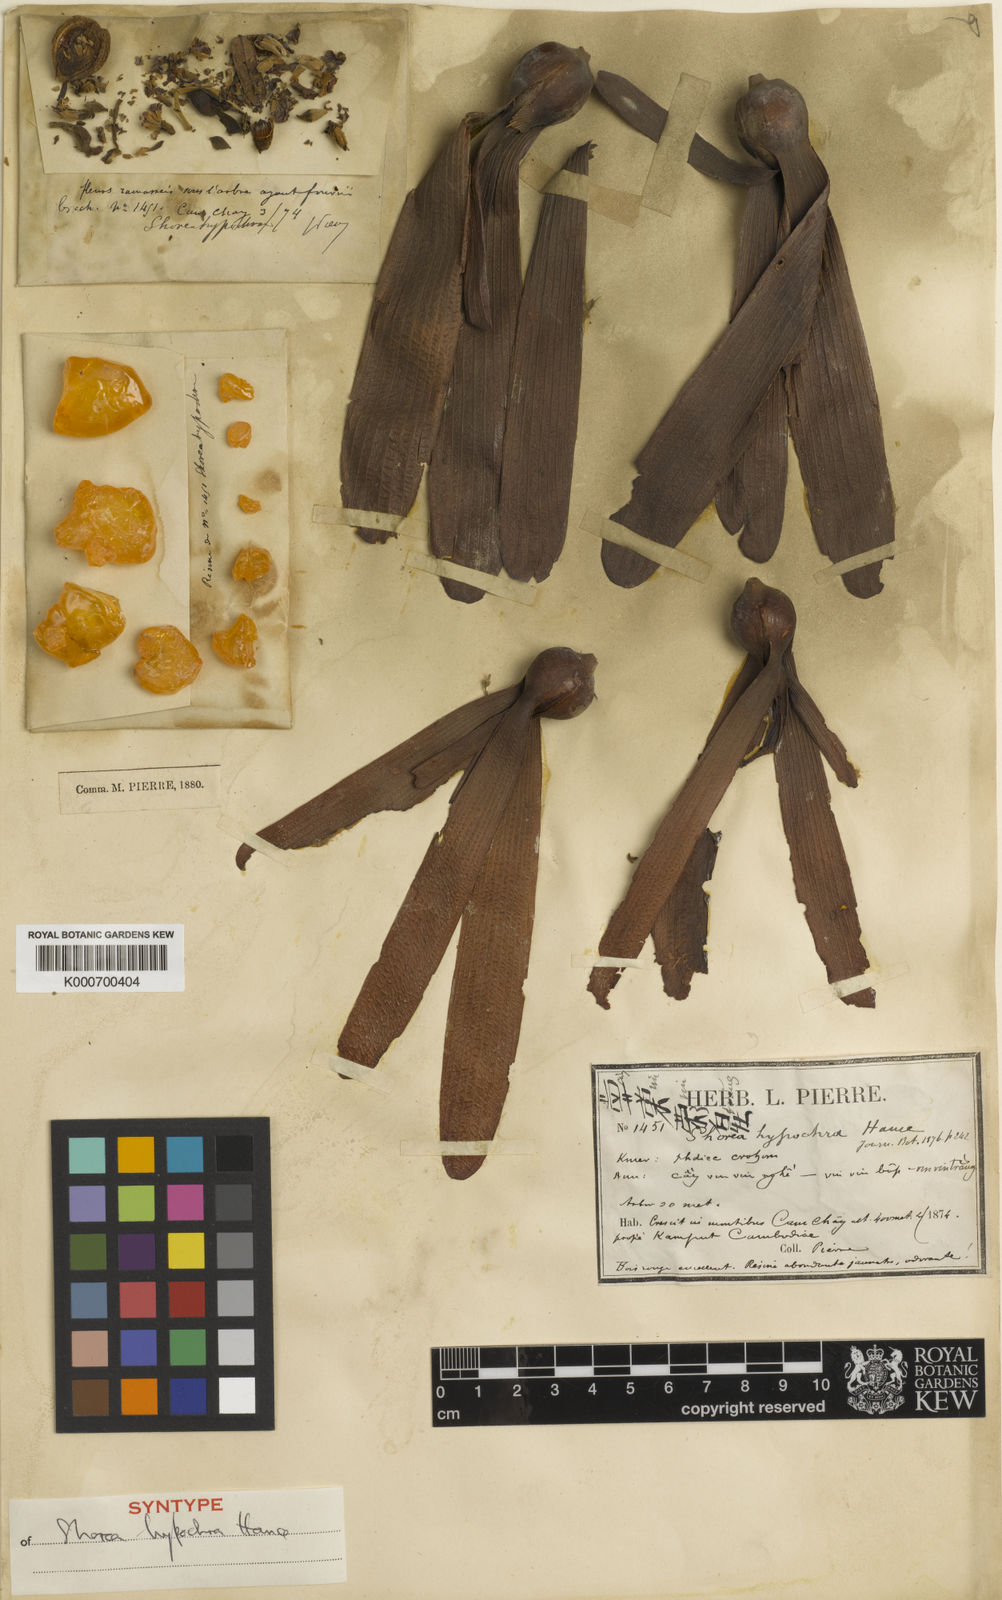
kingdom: Plantae
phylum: Tracheophyta
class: Magnoliopsida
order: Malvales
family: Dipterocarpaceae
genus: Anthoshorea
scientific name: Anthoshorea hypochra
